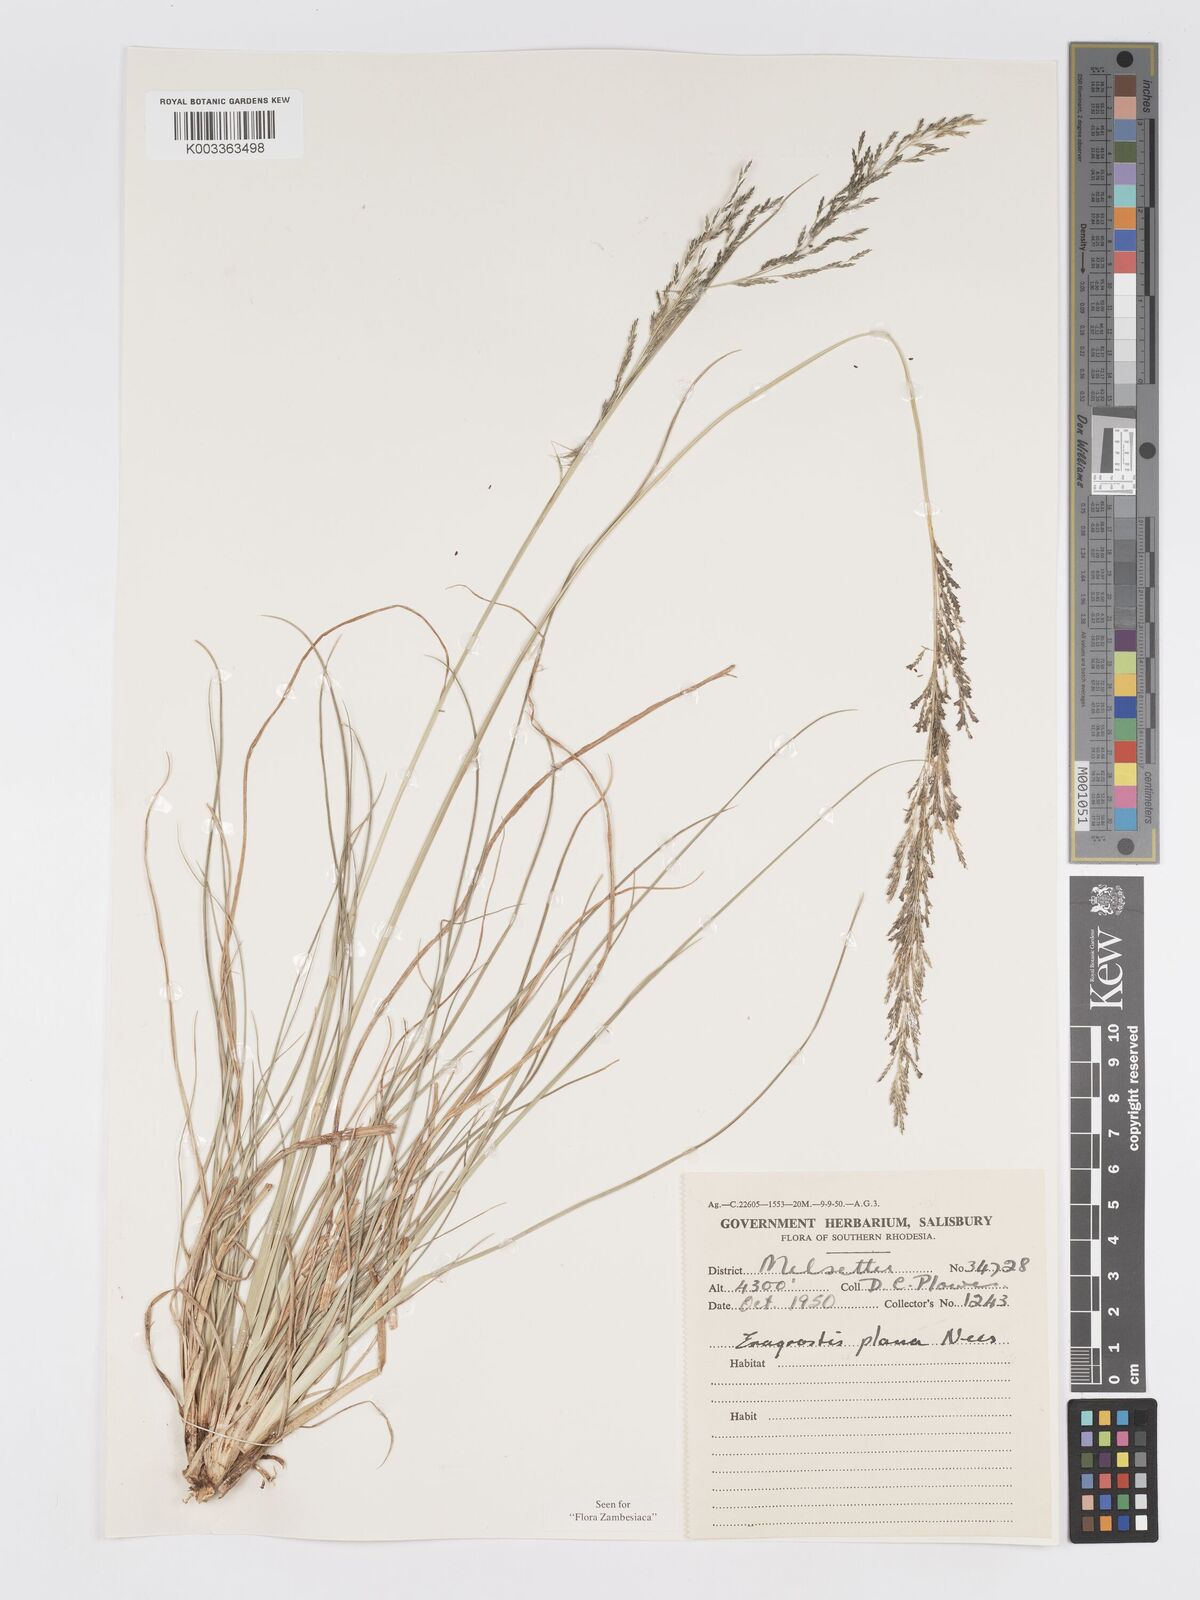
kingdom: Plantae
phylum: Tracheophyta
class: Liliopsida
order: Poales
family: Poaceae
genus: Eragrostis
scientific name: Eragrostis plana
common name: South african lovegrass
